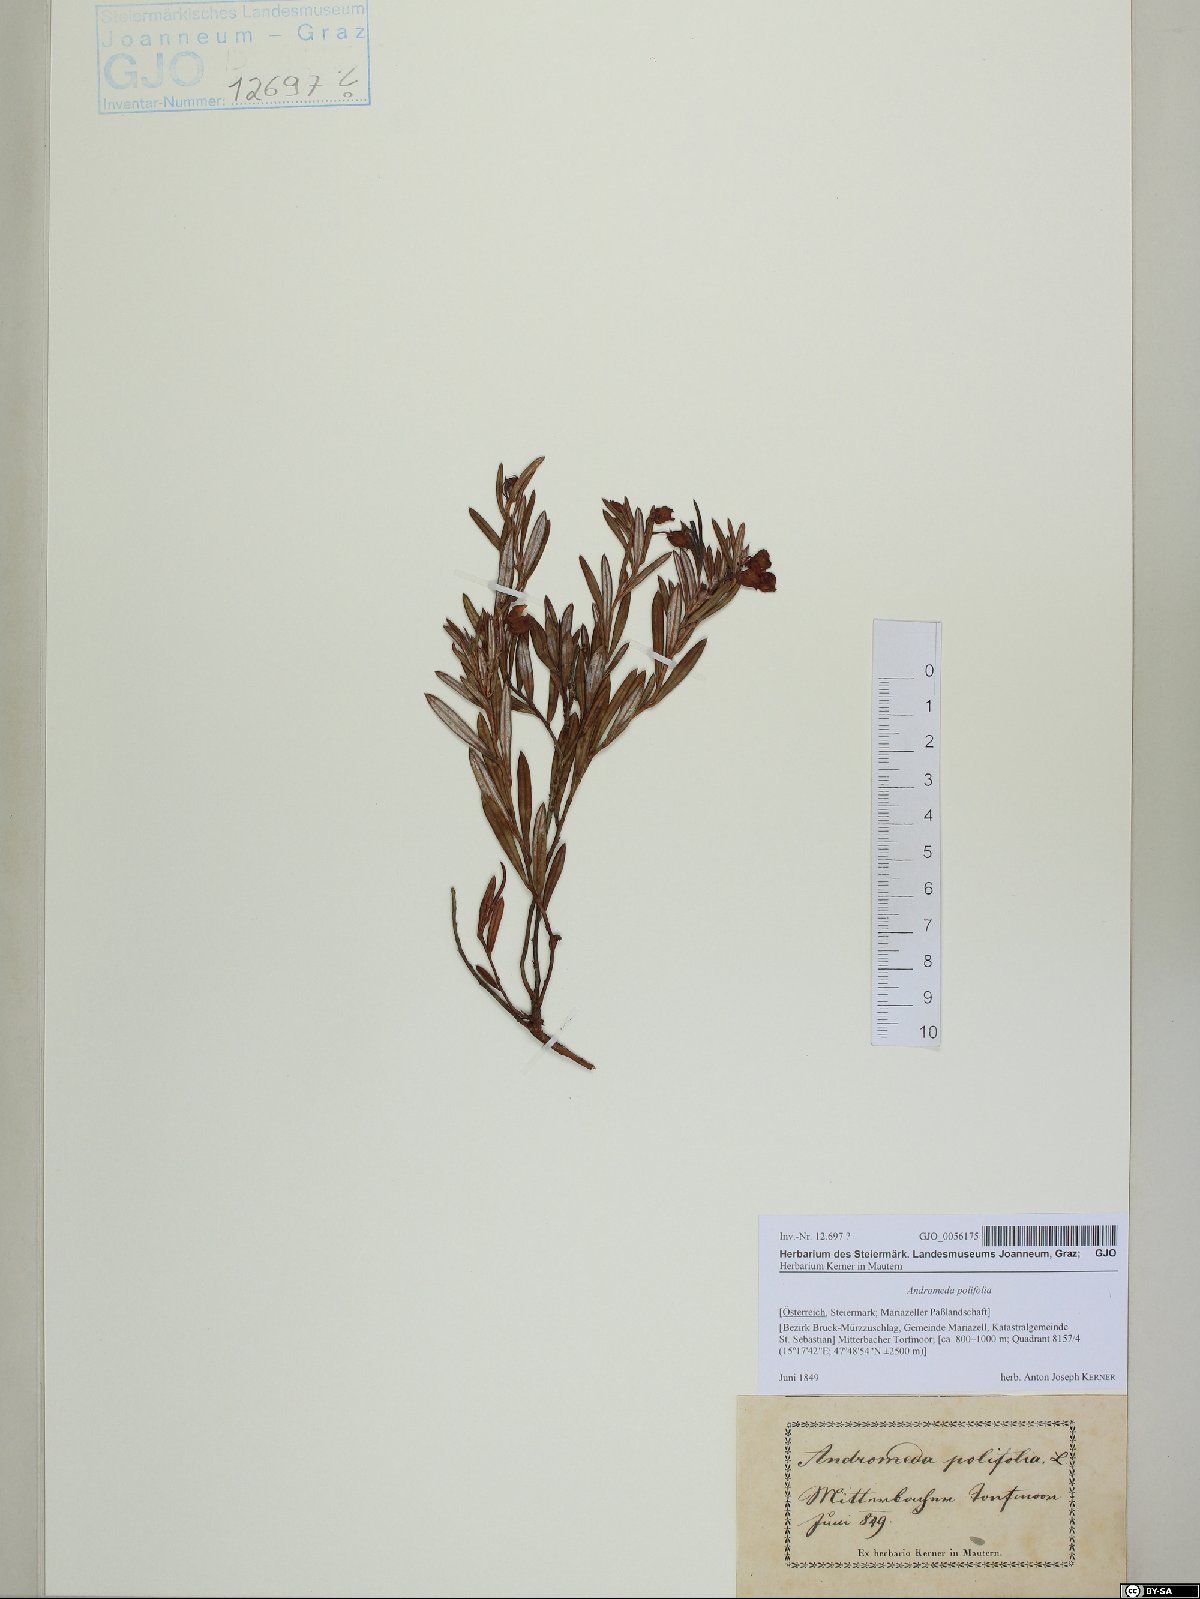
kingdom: Plantae
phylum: Tracheophyta
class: Magnoliopsida
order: Ericales
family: Ericaceae
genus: Andromeda
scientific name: Andromeda polifolia
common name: Bog-rosemary
